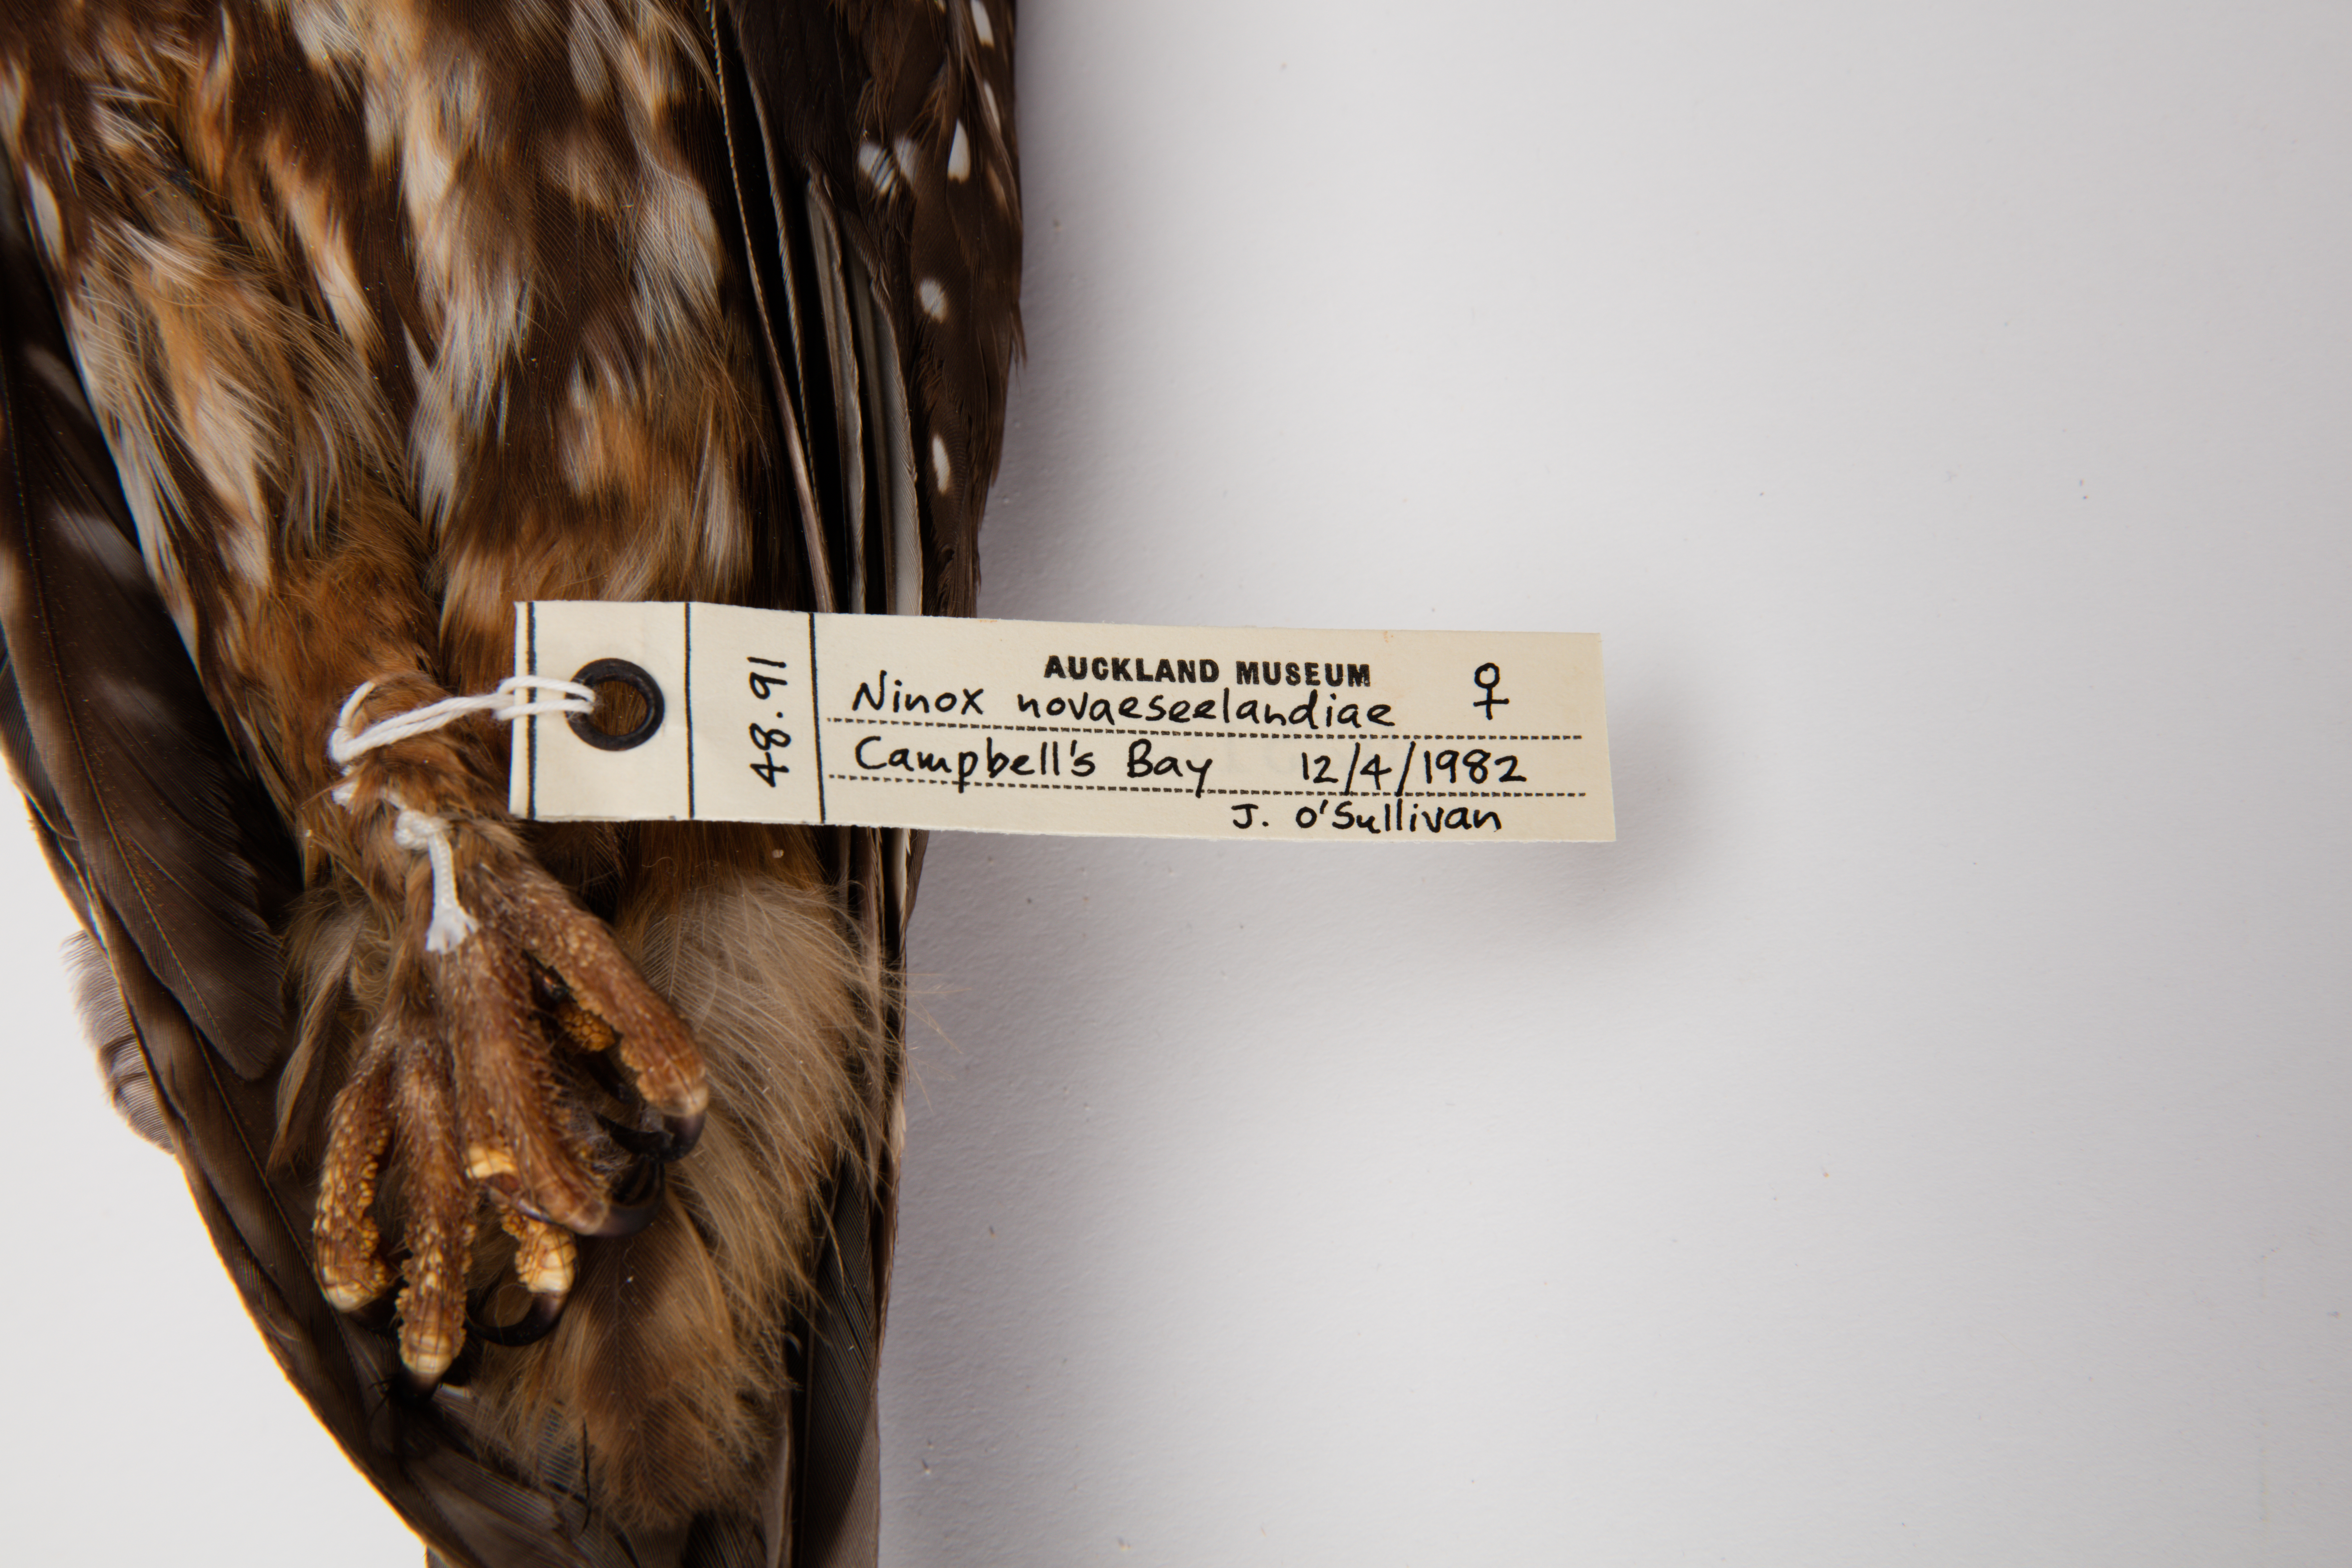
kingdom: Animalia
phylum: Chordata
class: Aves
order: Strigiformes
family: Strigidae
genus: Ninox
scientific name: Ninox novaeseelandiae
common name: Morepork
